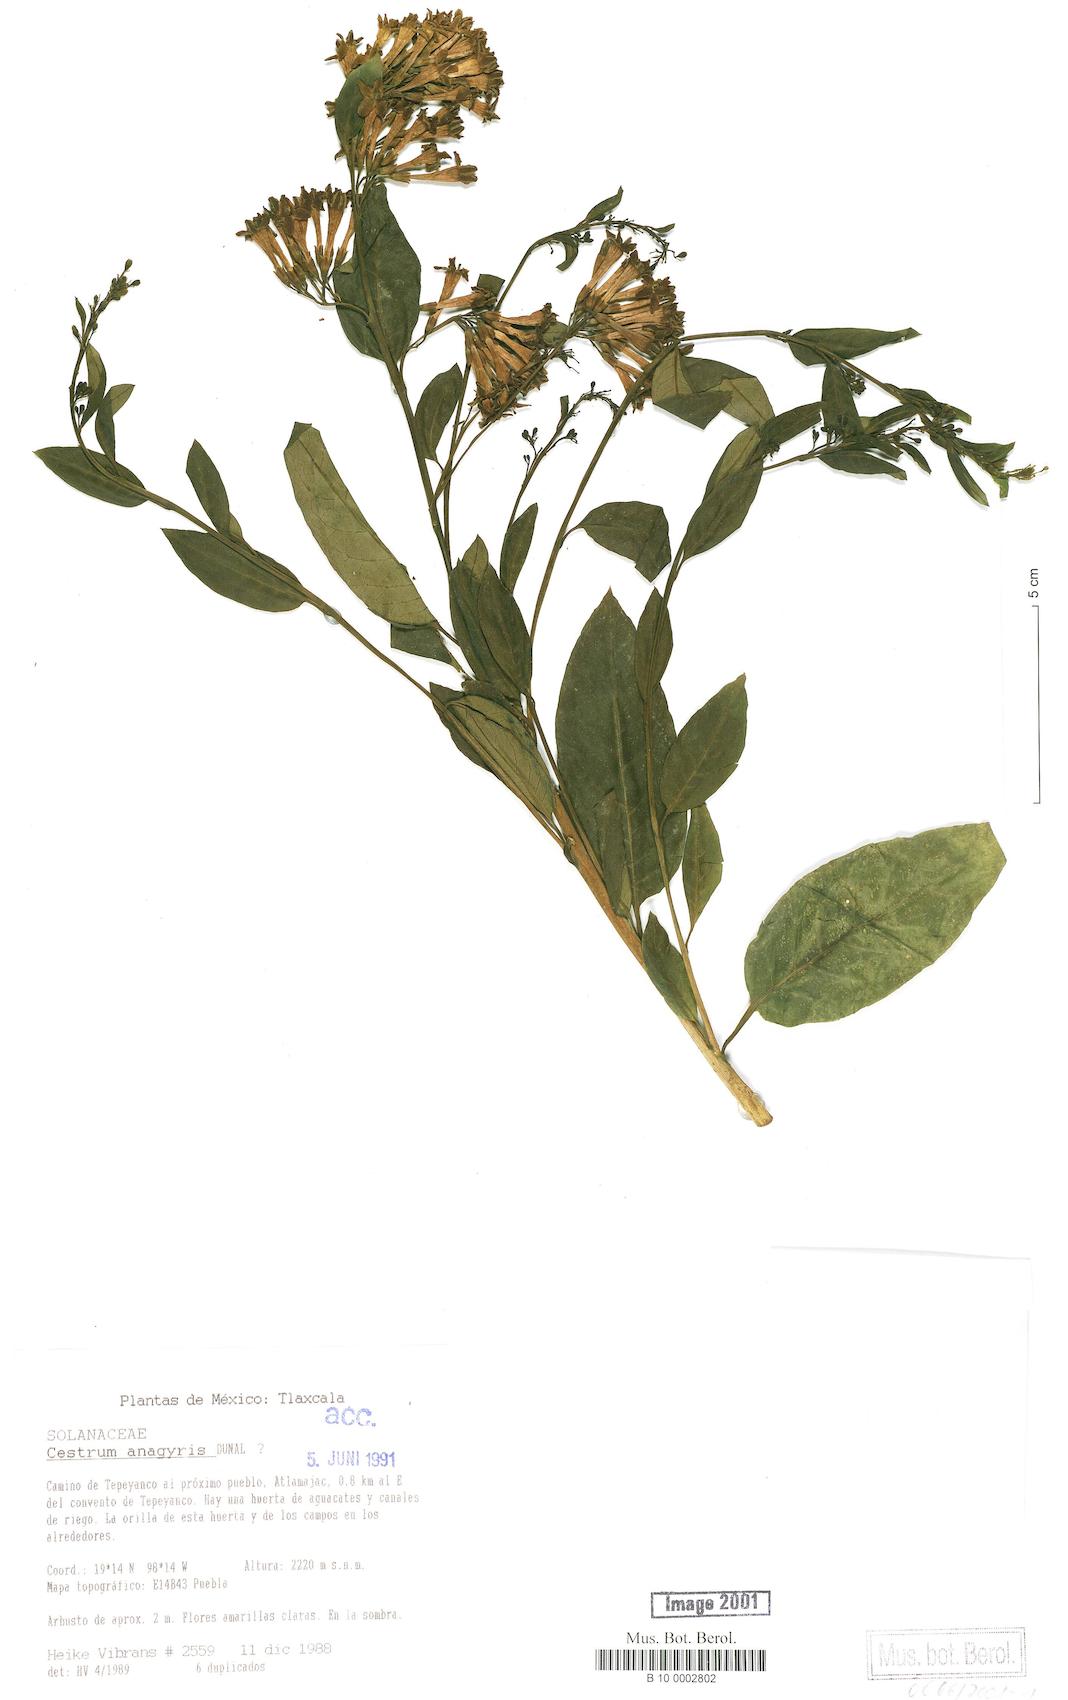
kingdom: Plantae
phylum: Tracheophyta
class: Magnoliopsida
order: Solanales
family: Solanaceae
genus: Cestrum
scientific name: Cestrum aurantiacum
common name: Orange cestrum
